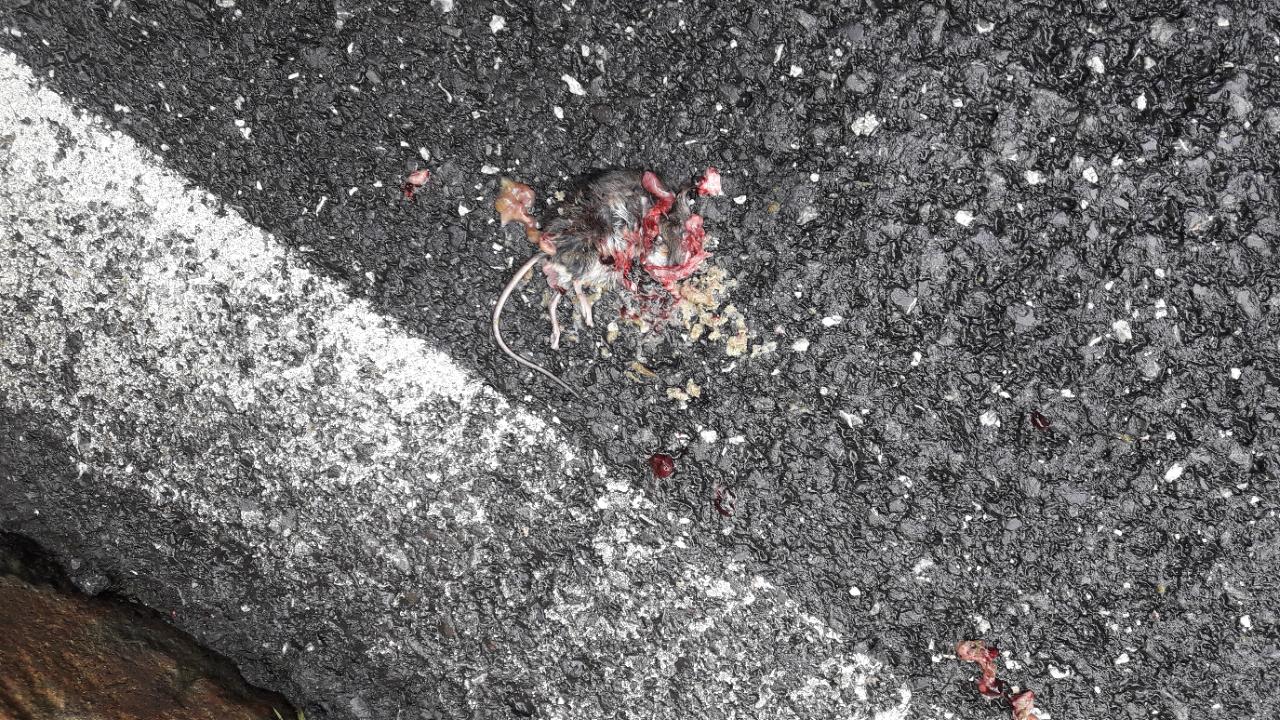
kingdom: Animalia
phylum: Chordata
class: Mammalia
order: Rodentia
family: Muridae
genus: Apodemus
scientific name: Apodemus
